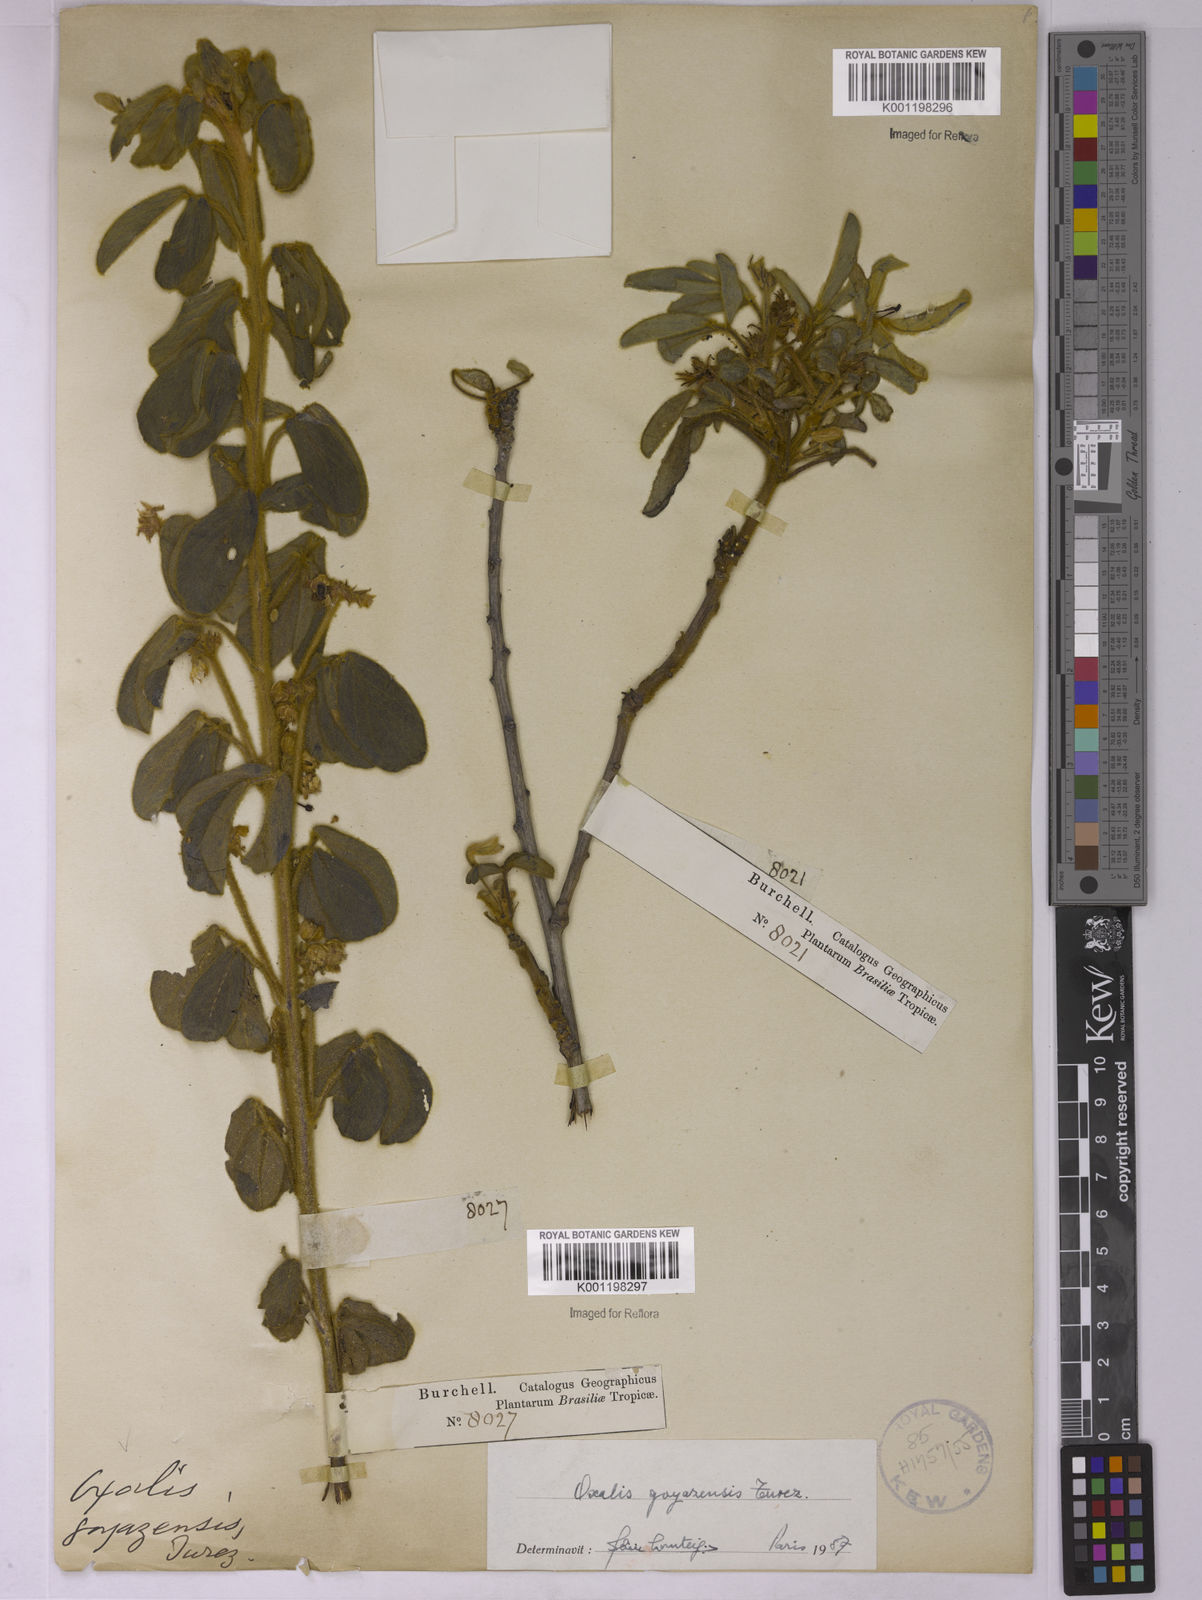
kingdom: Plantae
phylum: Tracheophyta
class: Magnoliopsida
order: Oxalidales
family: Oxalidaceae
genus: Oxalis
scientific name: Oxalis goyazensis
